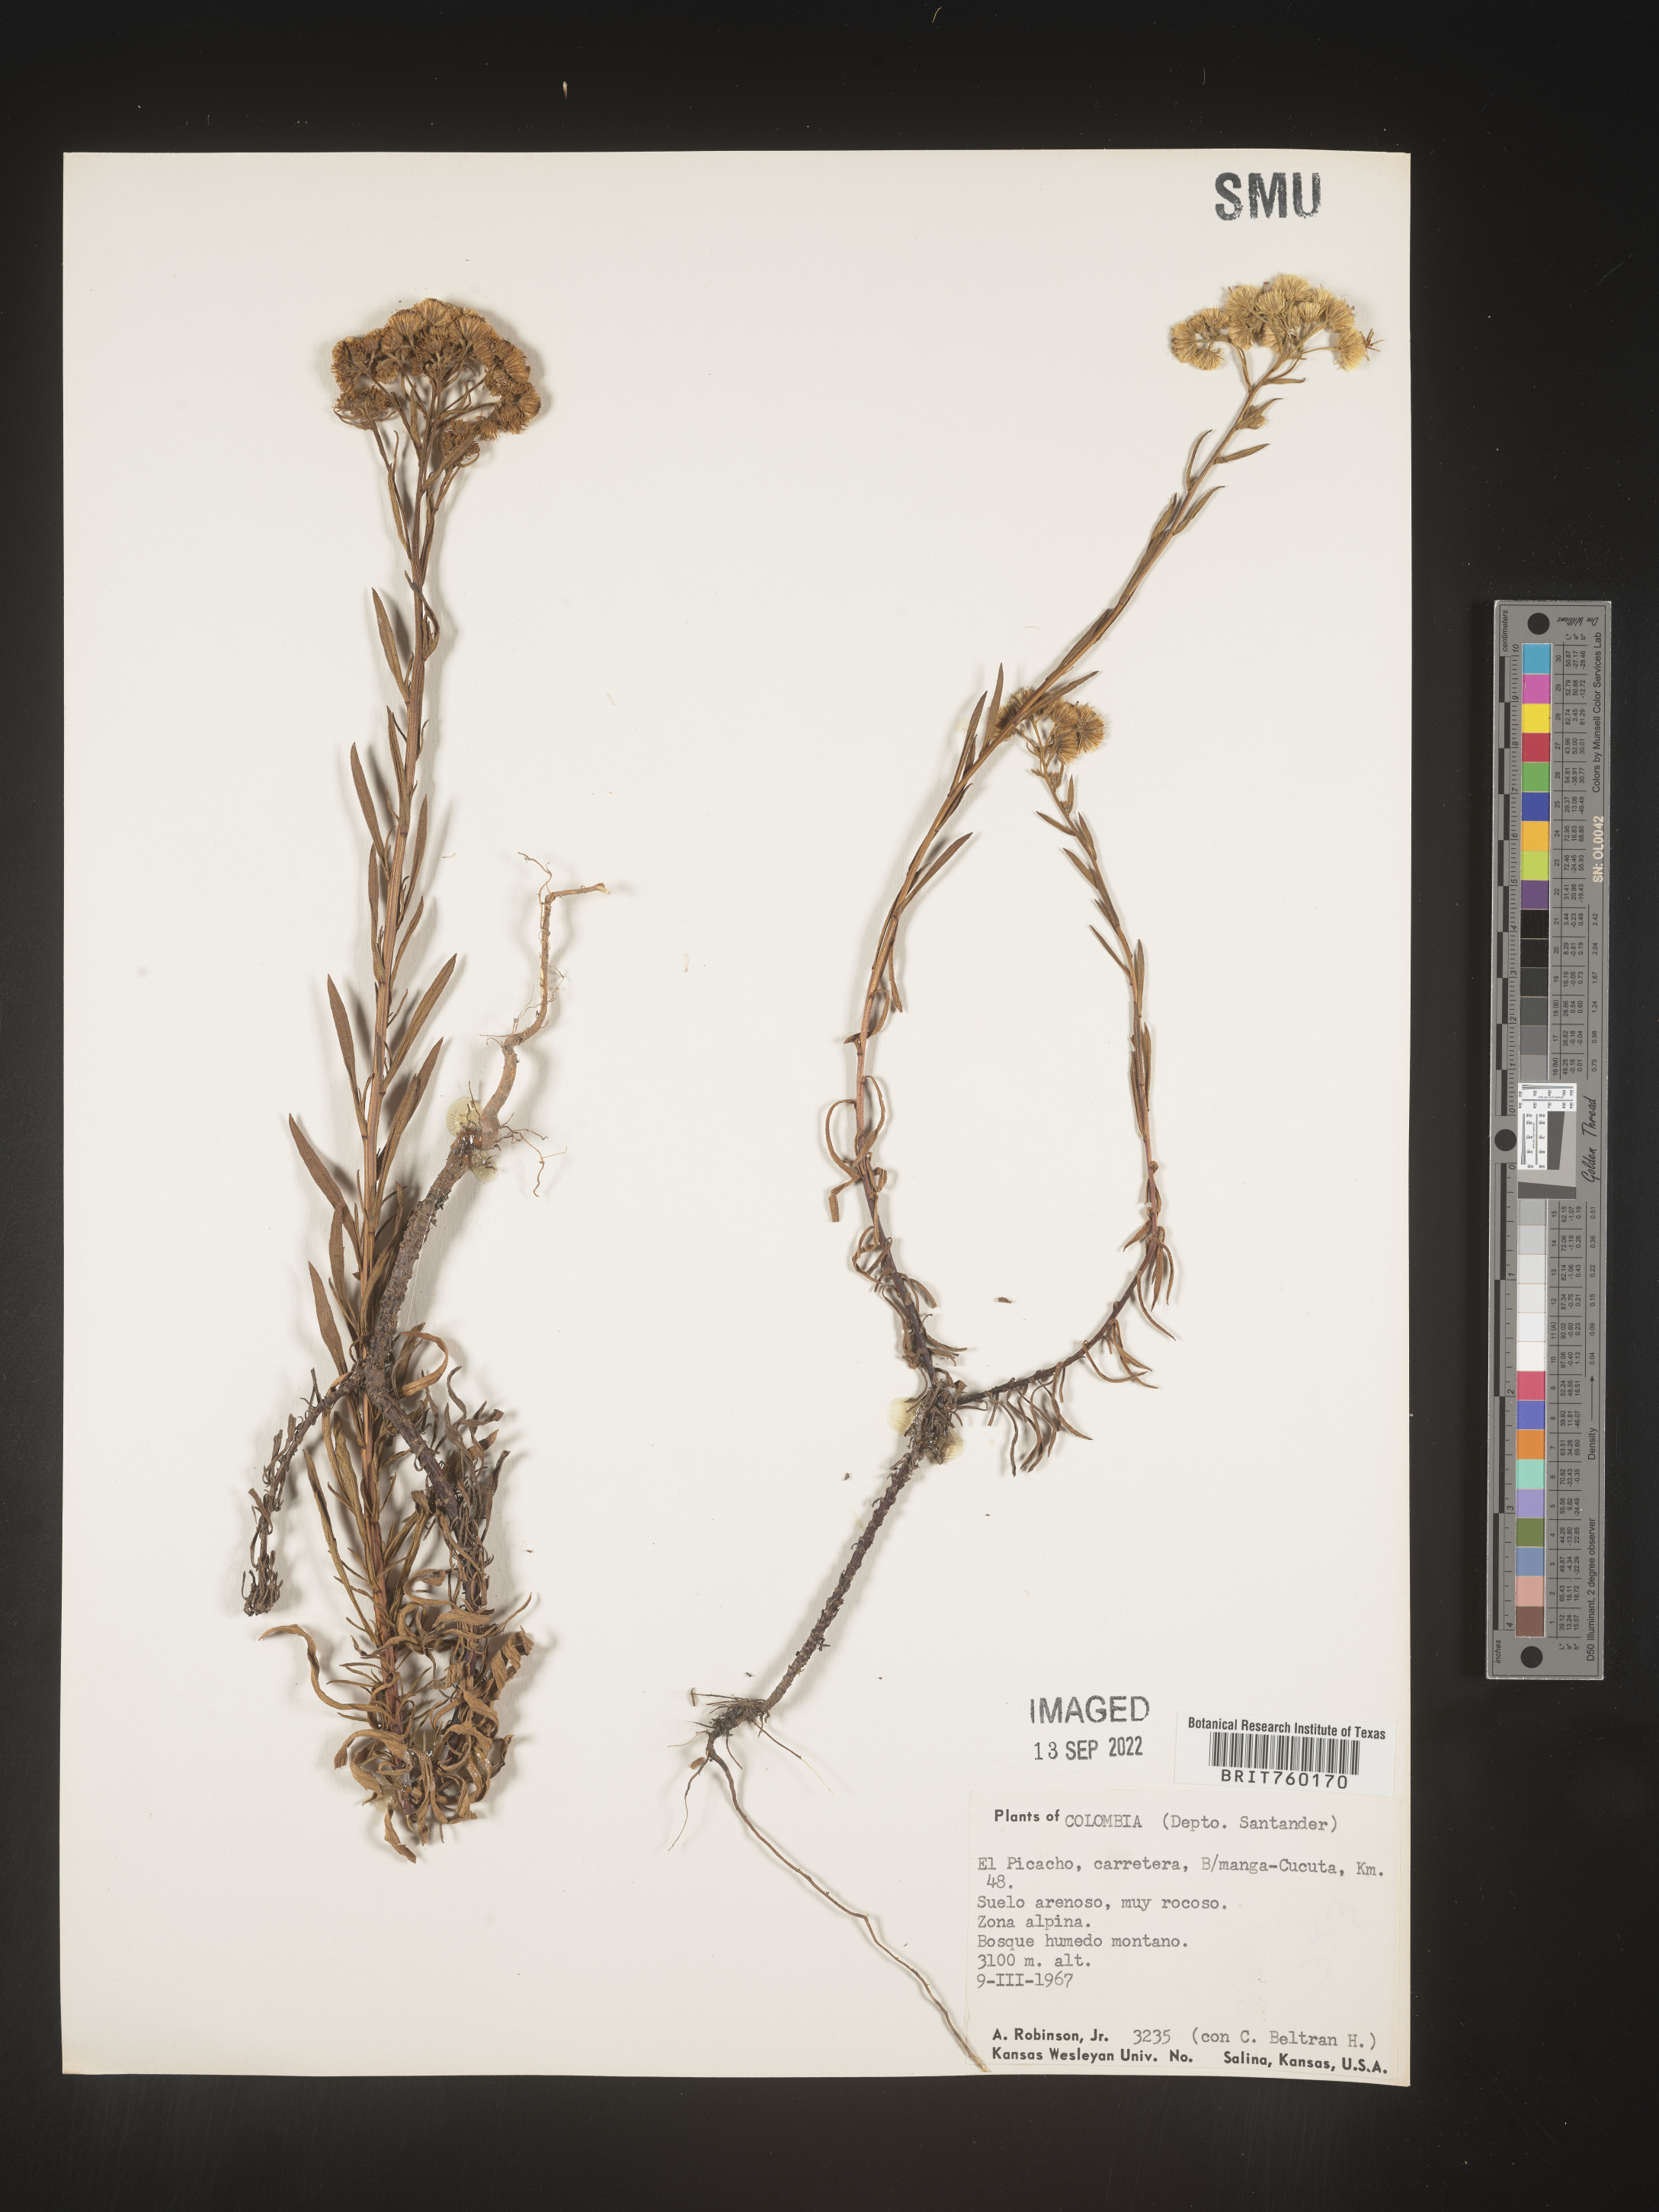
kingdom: Plantae
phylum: Tracheophyta
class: Magnoliopsida
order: Asterales
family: Asteraceae
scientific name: Asteraceae
